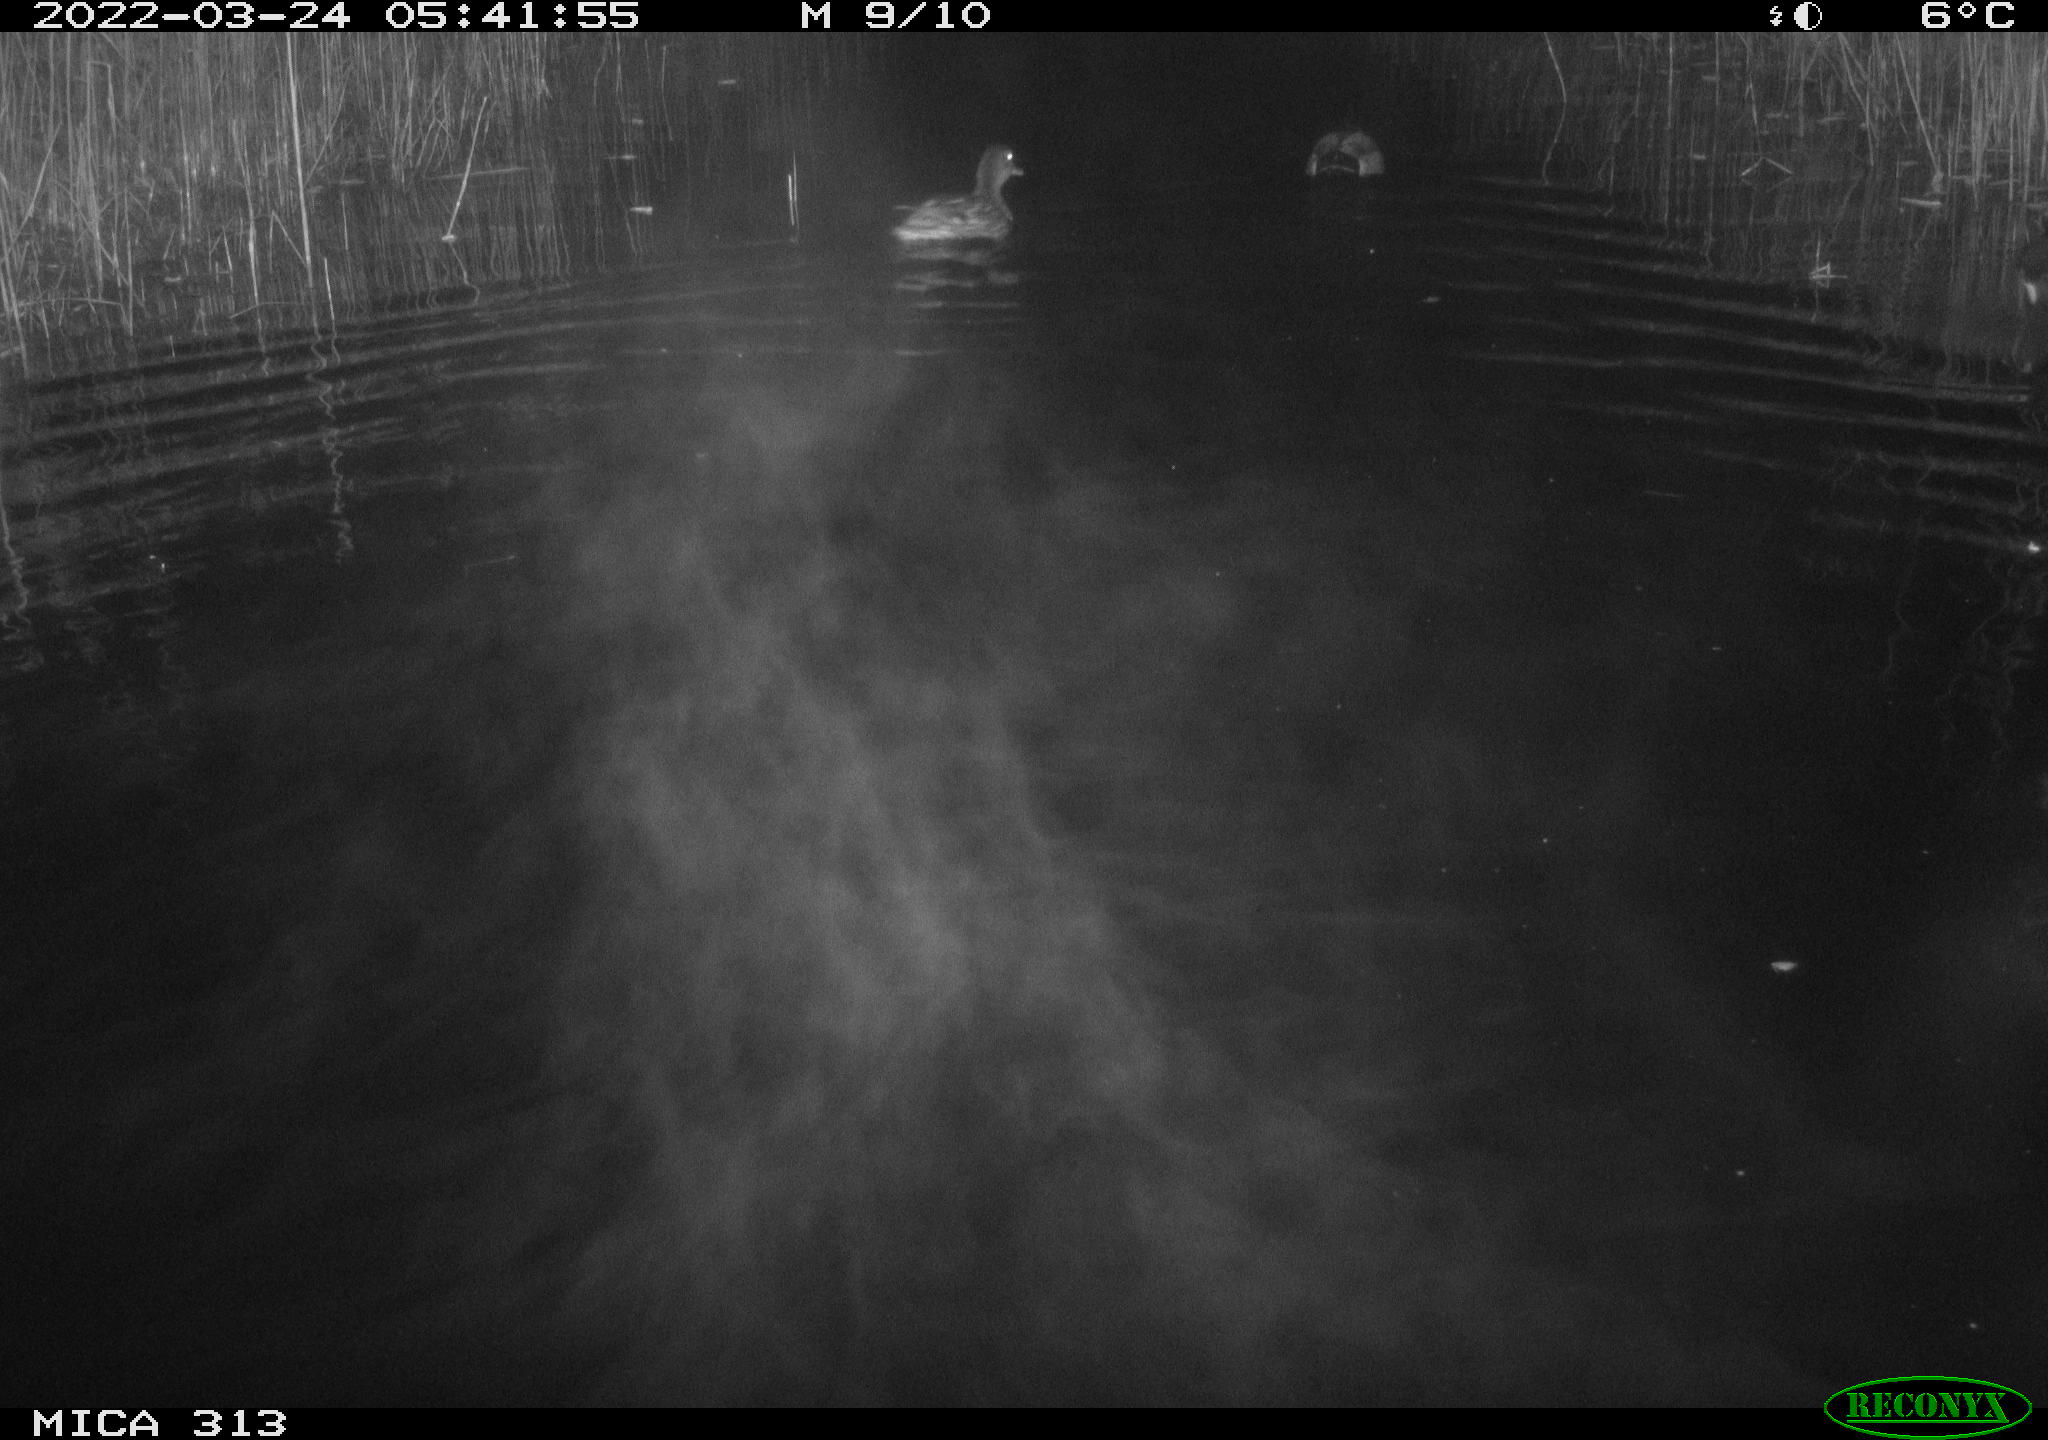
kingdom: Animalia
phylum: Chordata
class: Aves
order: Anseriformes
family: Anatidae
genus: Anas
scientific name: Anas platyrhynchos
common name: Mallard
